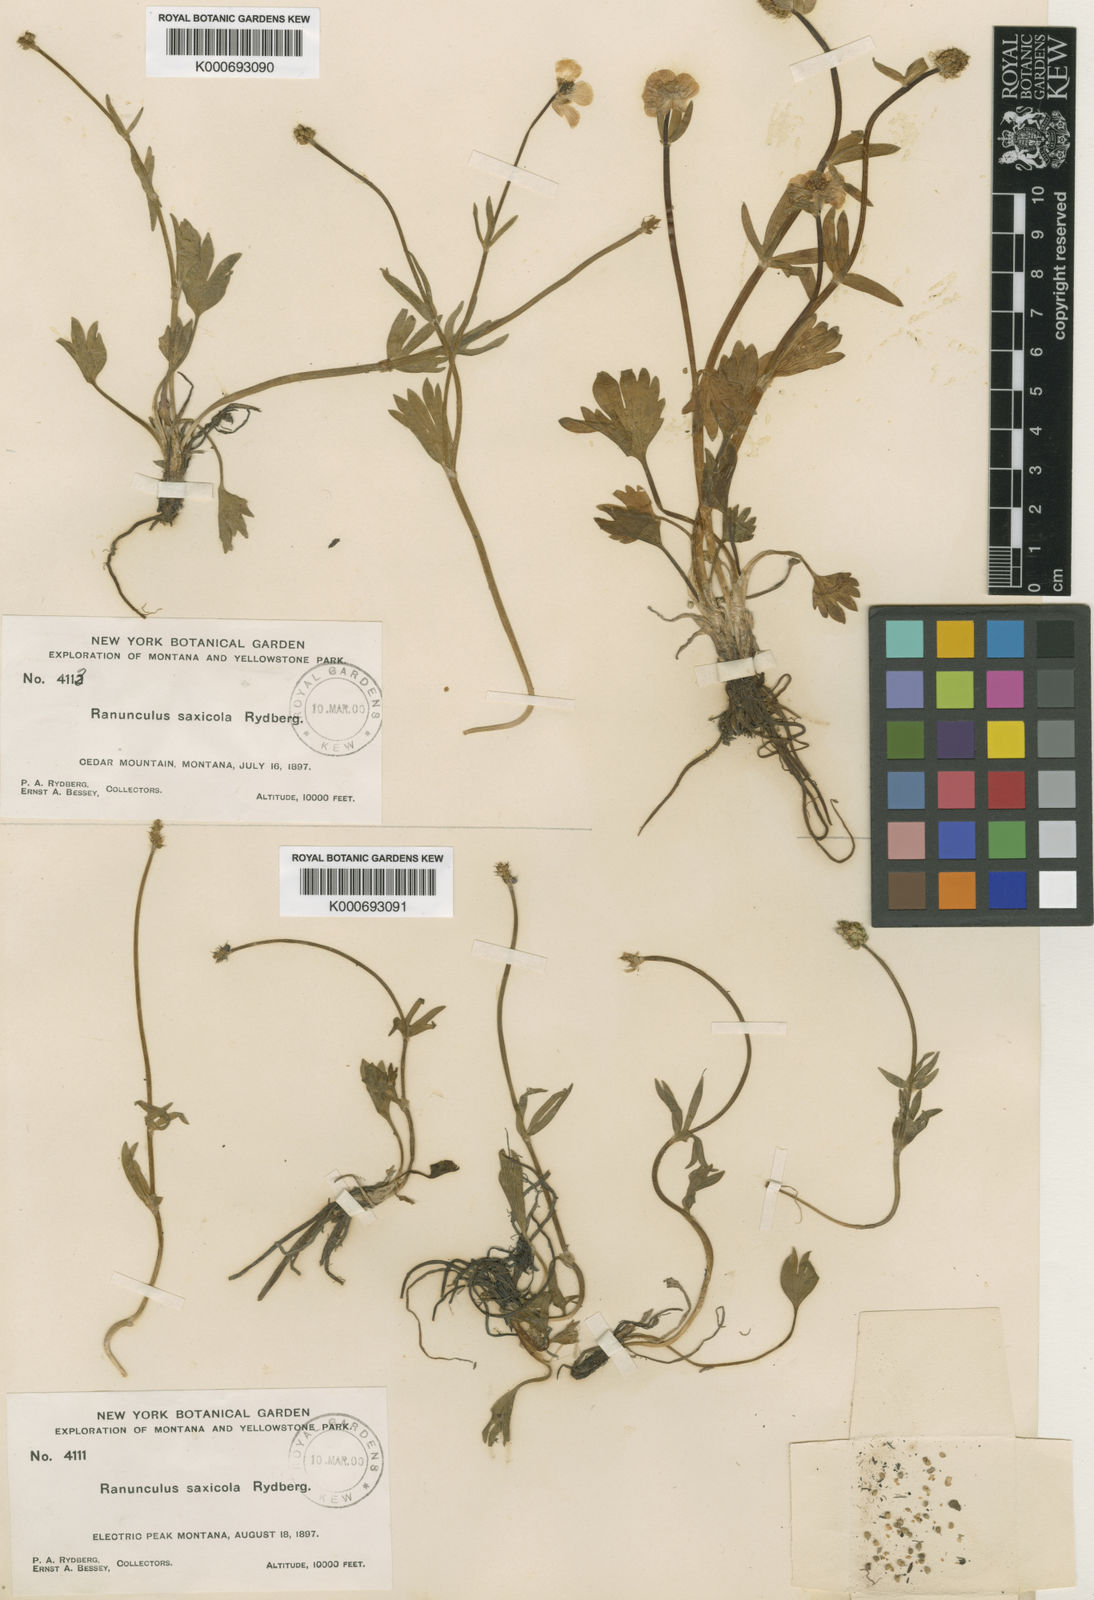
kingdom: Plantae
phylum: Tracheophyta
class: Magnoliopsida
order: Ranunculales
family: Ranunculaceae
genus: Ranunculus
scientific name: Ranunculus eximius
